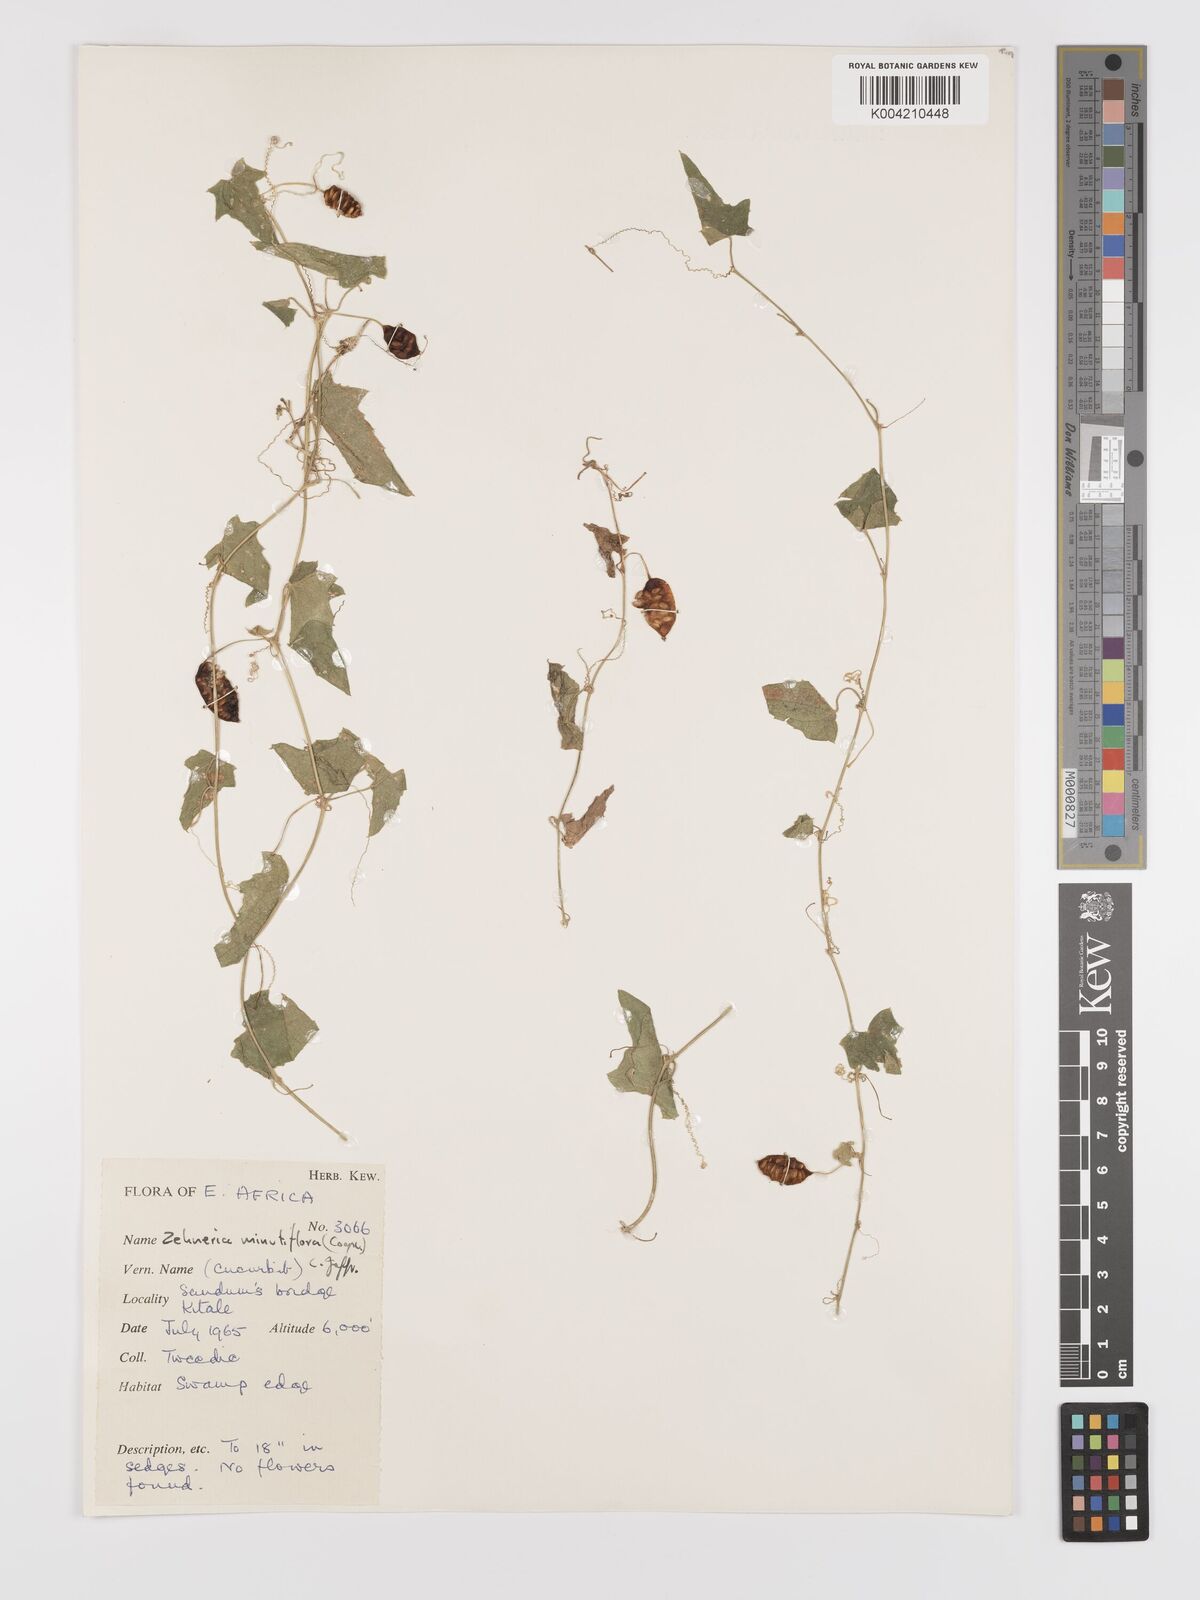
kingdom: Plantae
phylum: Tracheophyta
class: Magnoliopsida
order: Cucurbitales
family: Cucurbitaceae
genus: Zehneria
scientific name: Zehneria minutiflora
